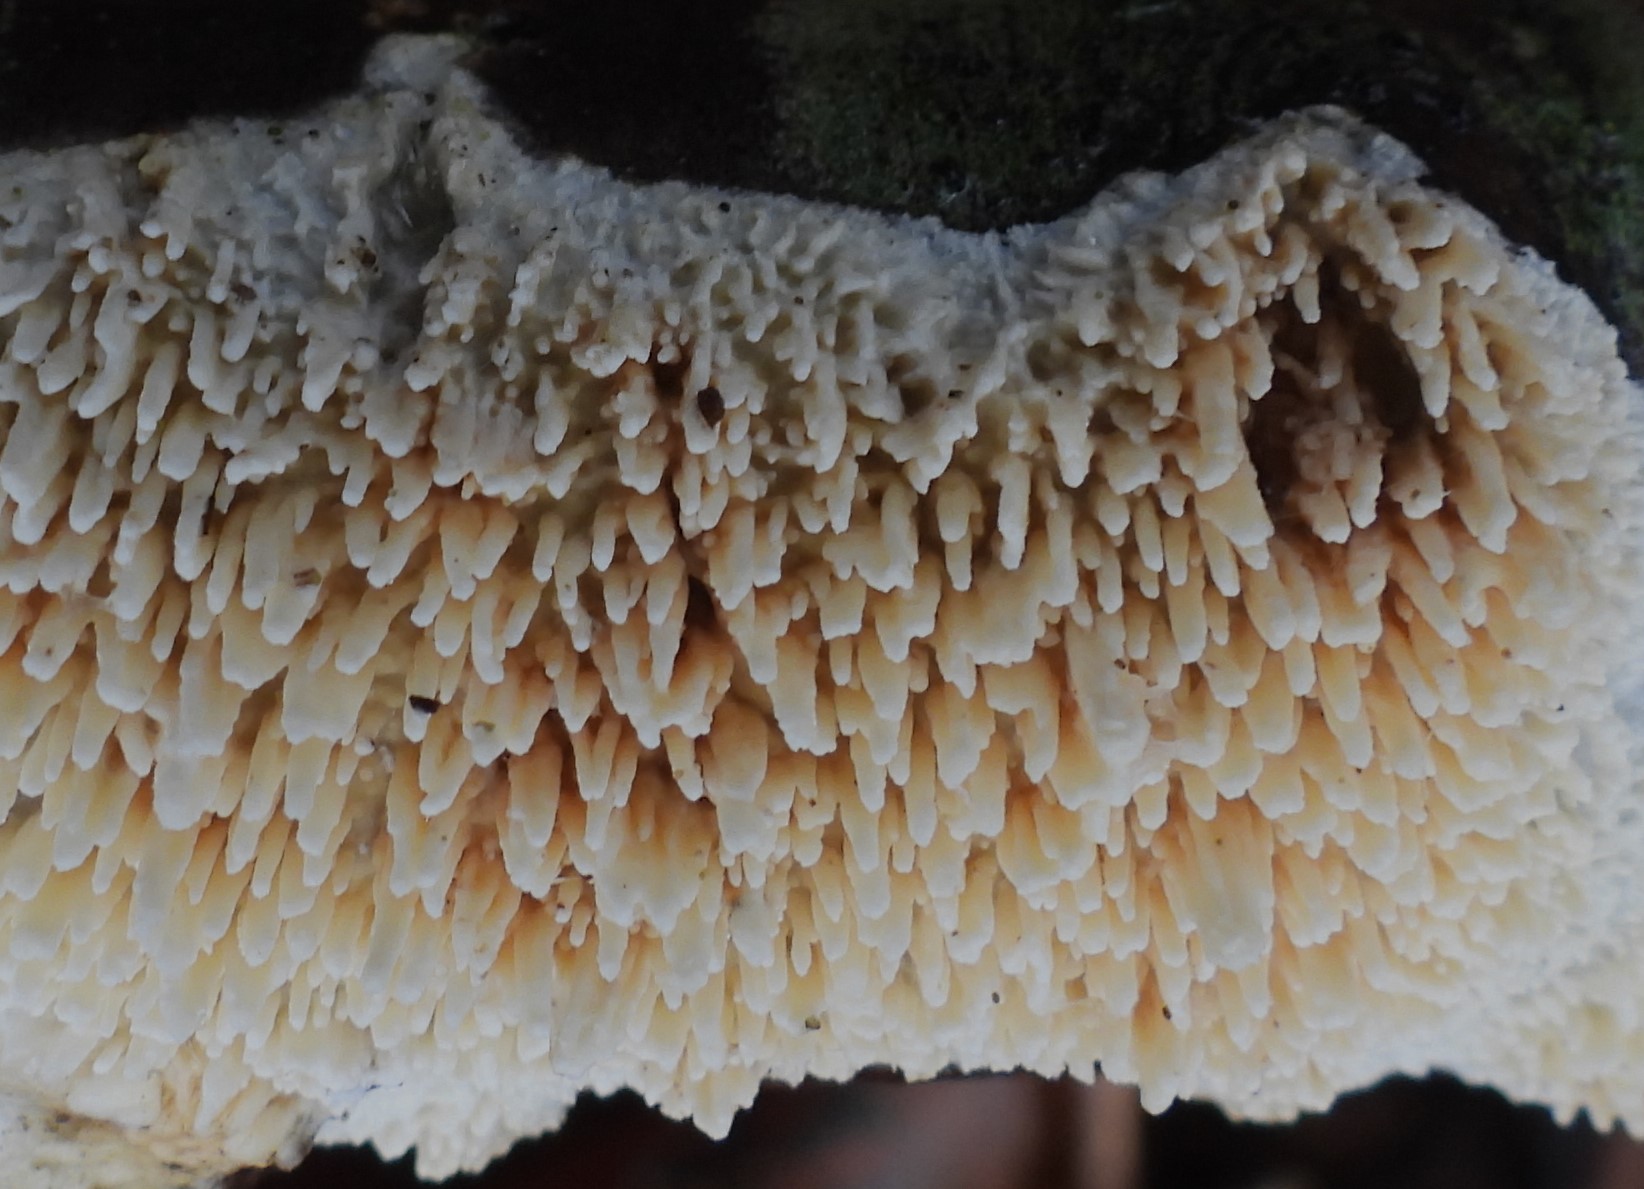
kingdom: Fungi
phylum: Basidiomycota
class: Agaricomycetes
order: Hymenochaetales
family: Schizoporaceae
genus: Xylodon
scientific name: Xylodon radula
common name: grovtandet kalkskind
